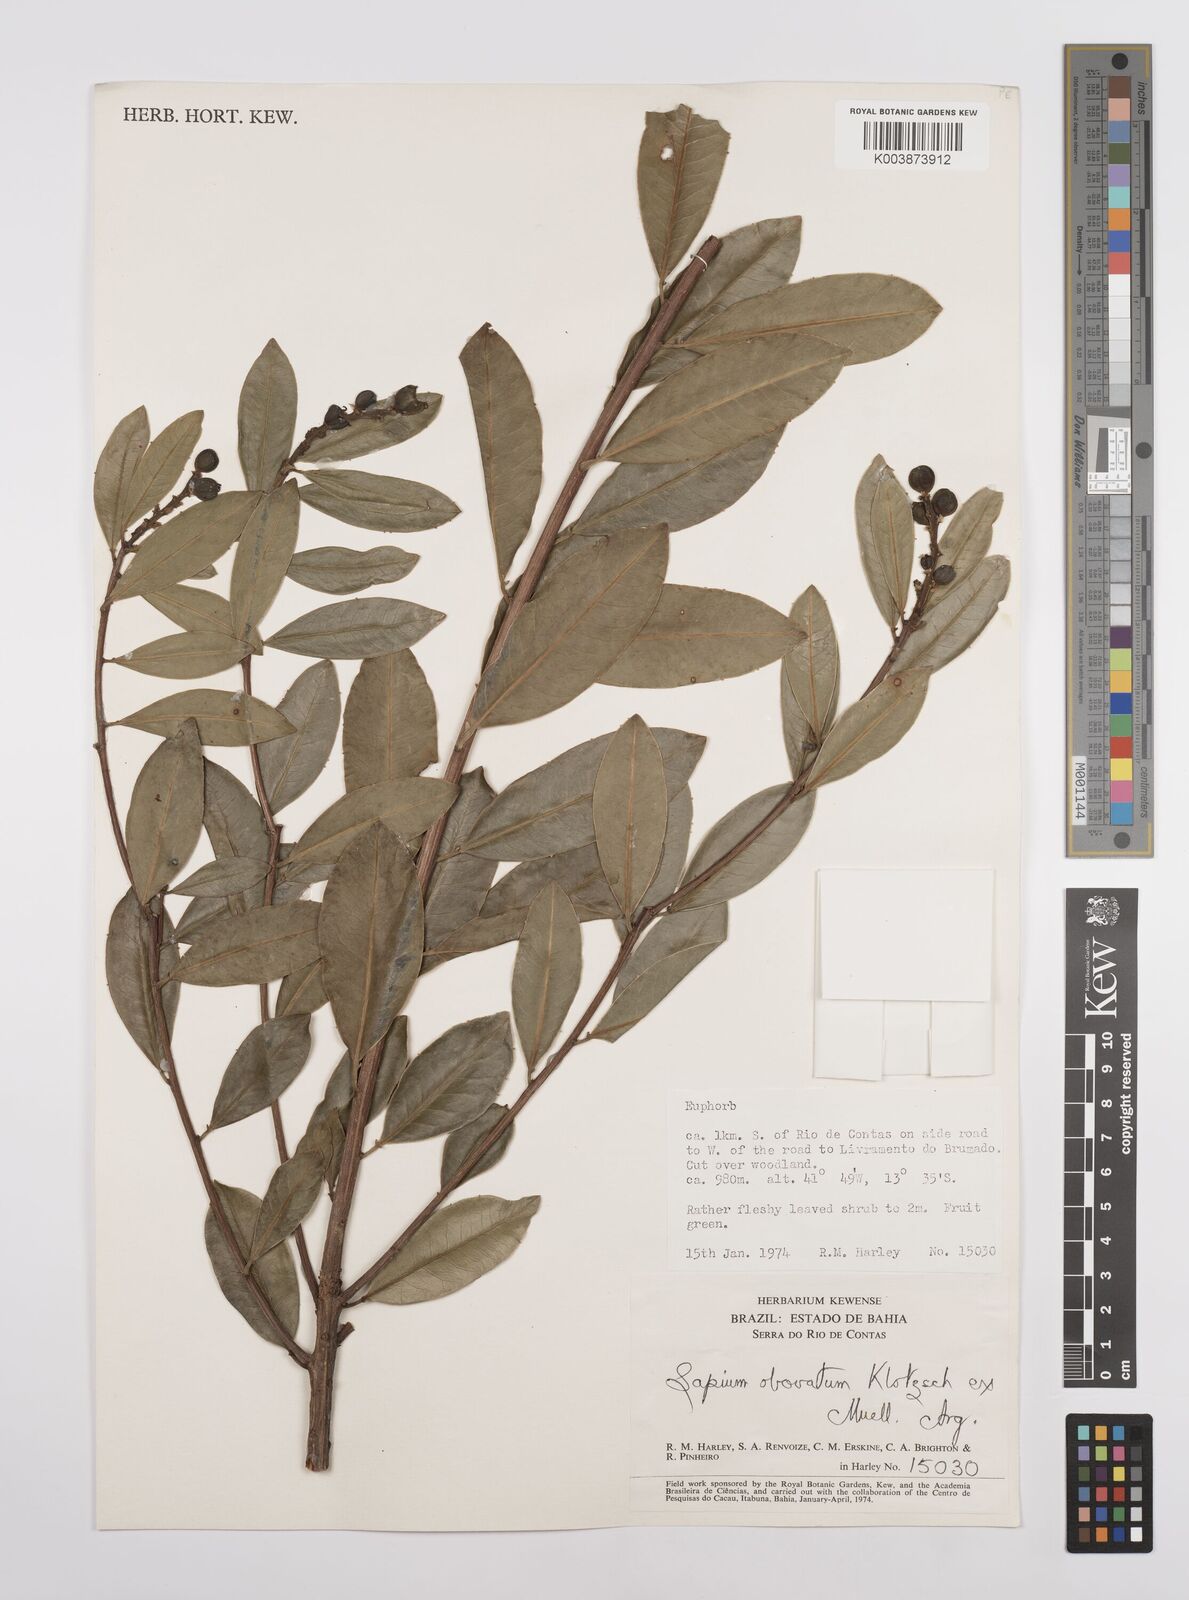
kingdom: Plantae
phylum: Tracheophyta
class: Magnoliopsida
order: Malpighiales
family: Euphorbiaceae
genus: Sapium
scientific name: Sapium obovatum
